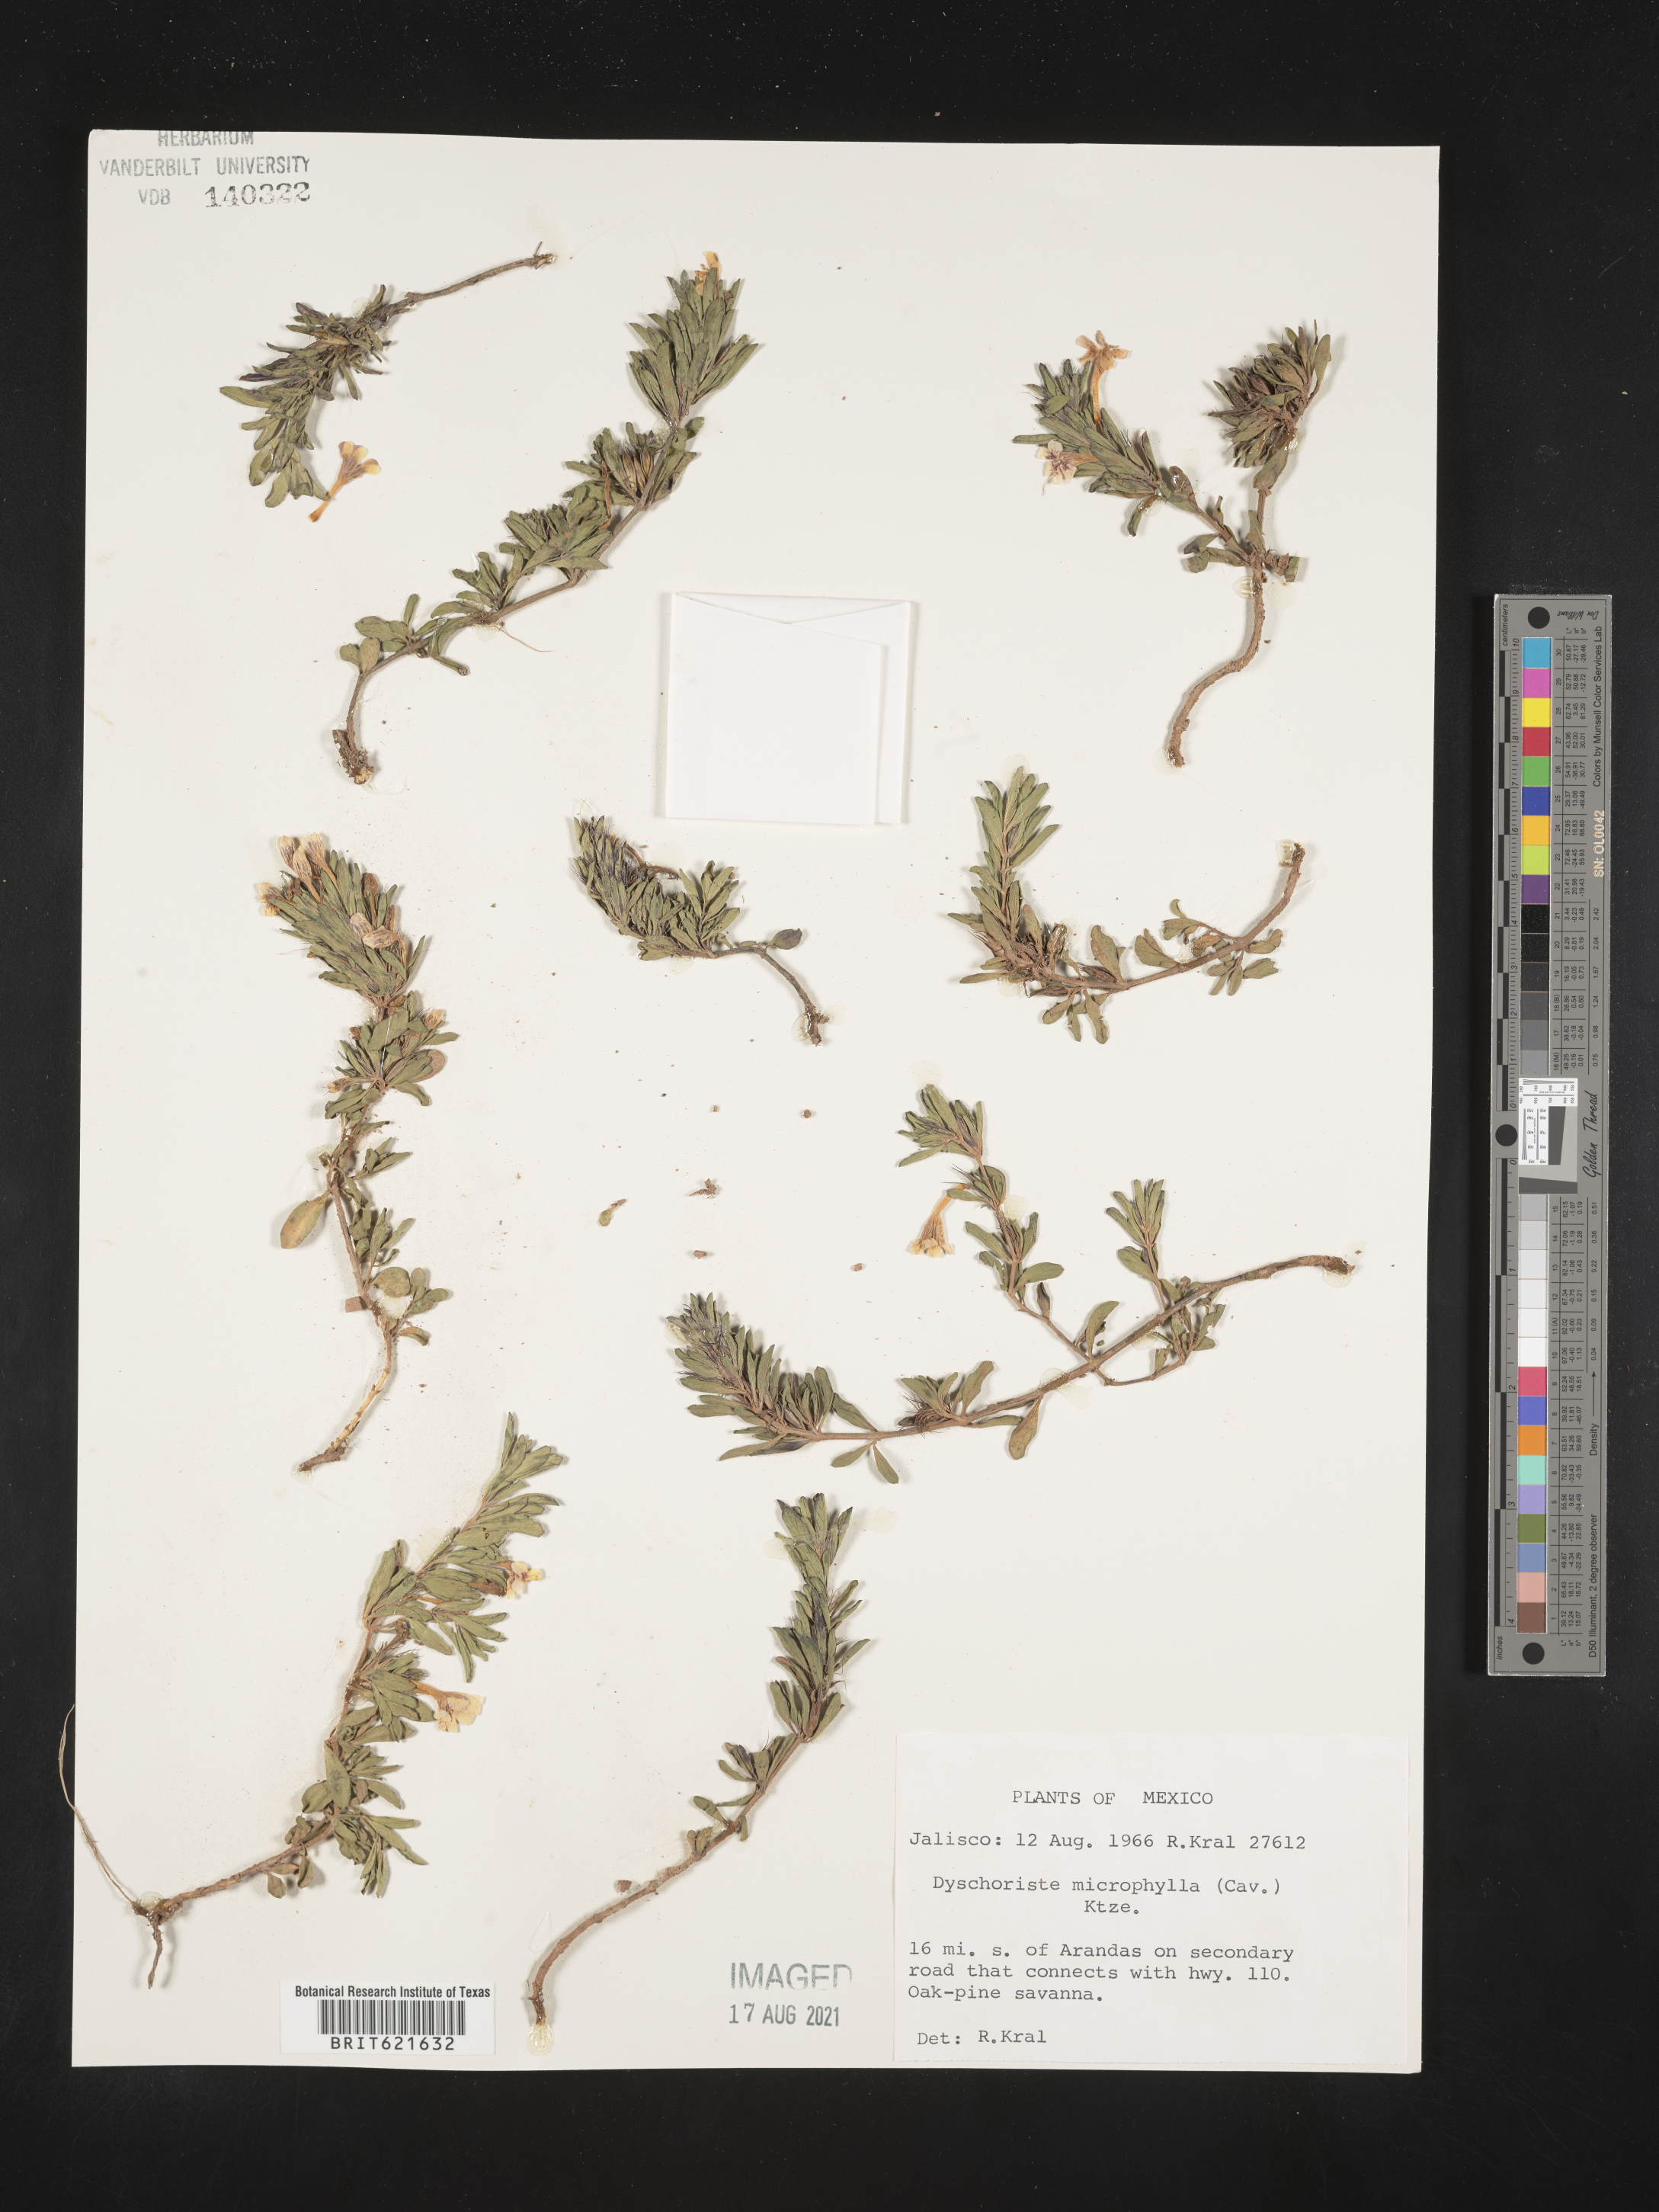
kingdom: Plantae
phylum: Tracheophyta
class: Magnoliopsida
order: Lamiales
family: Acanthaceae
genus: Dyschoriste
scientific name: Dyschoriste
